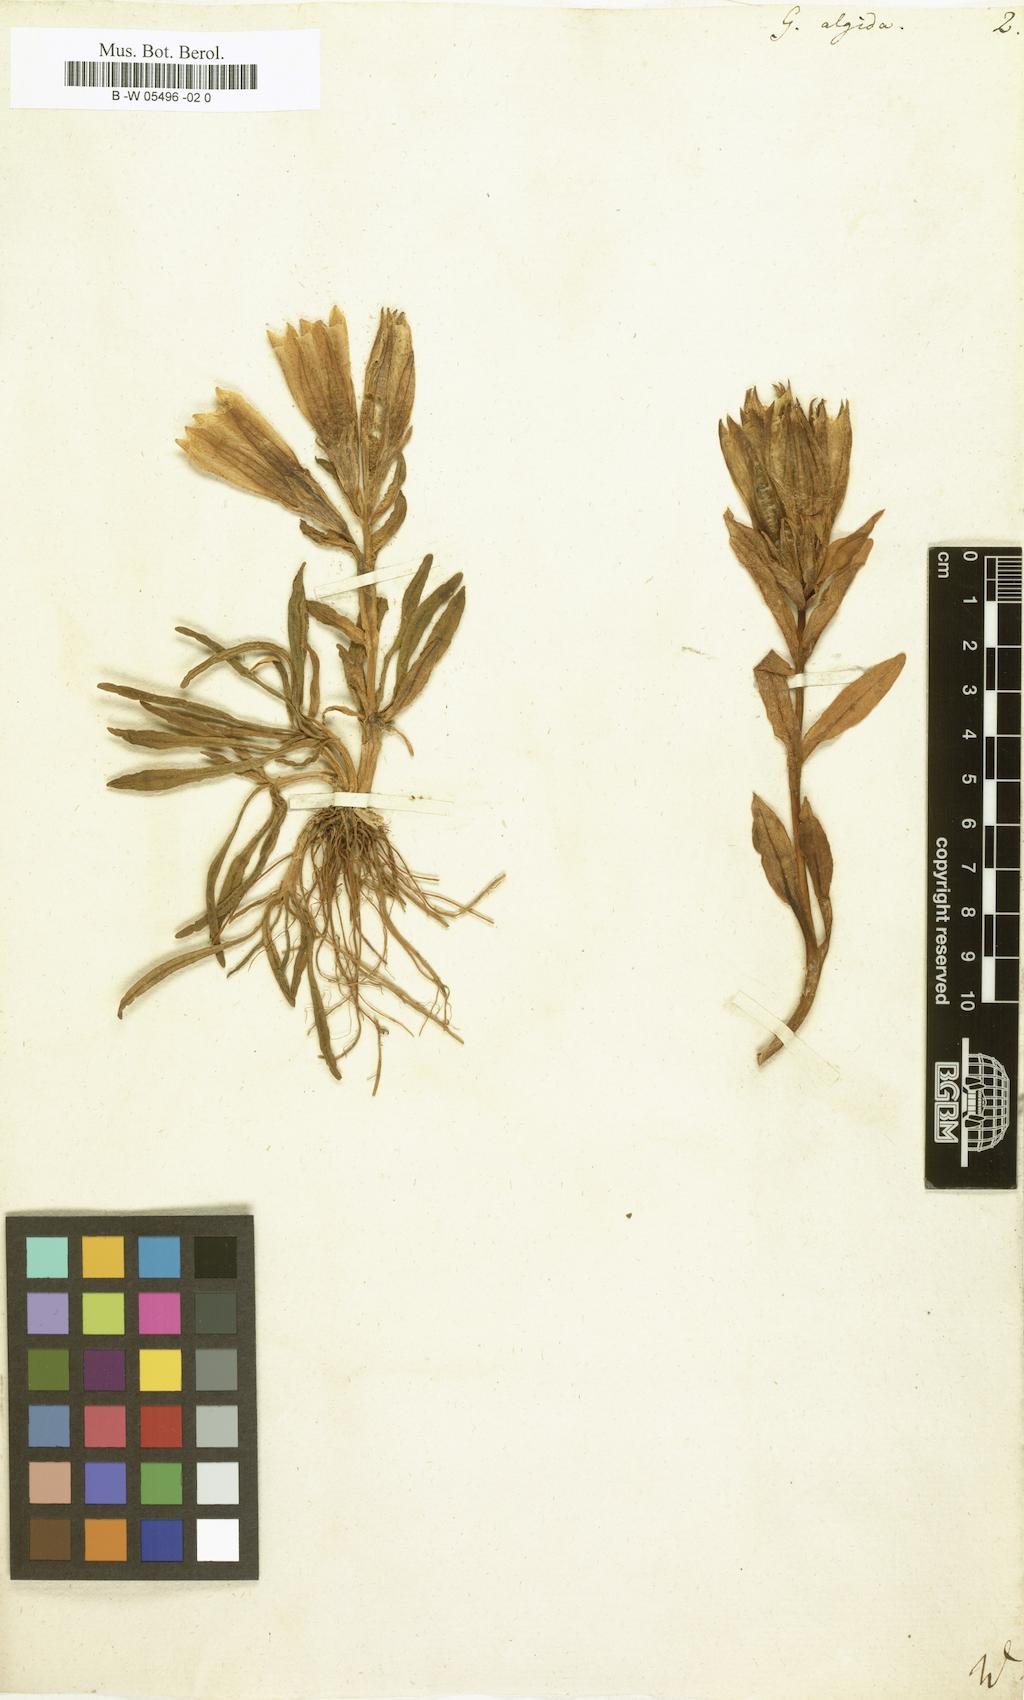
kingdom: Plantae
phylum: Tracheophyta
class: Magnoliopsida
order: Gentianales
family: Gentianaceae
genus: Gentiana
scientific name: Gentiana algida
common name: Arctic gentian
